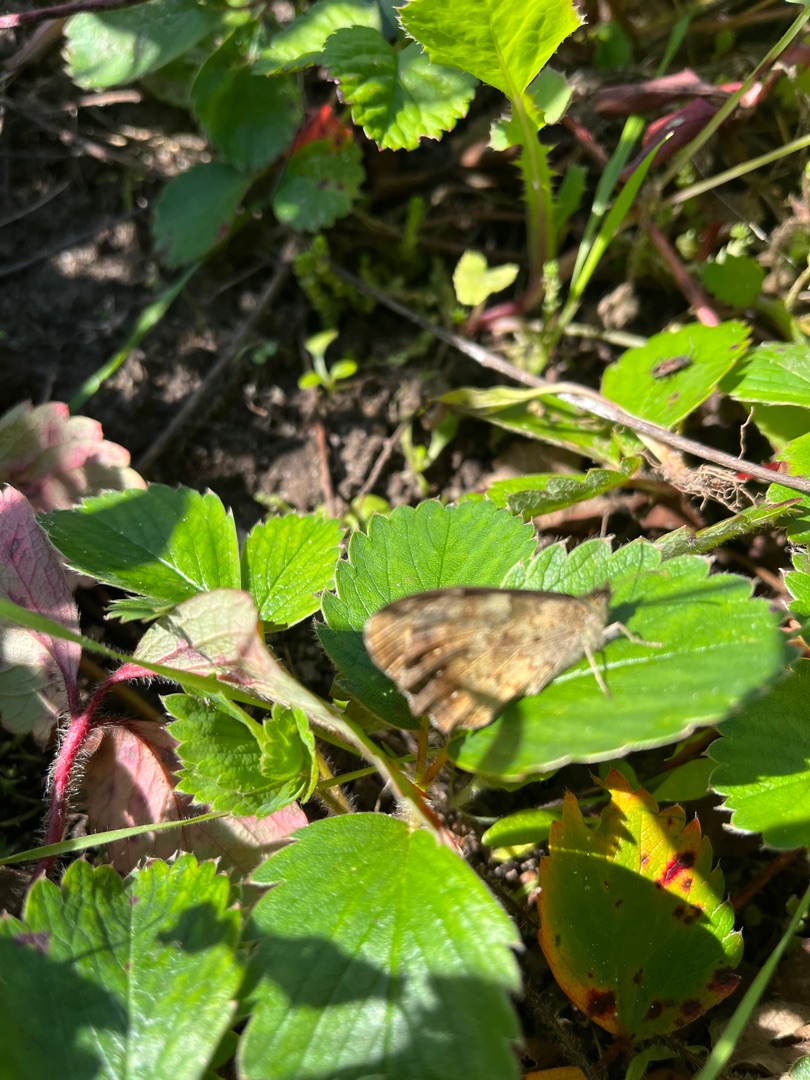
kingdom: Animalia
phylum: Arthropoda
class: Insecta
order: Lepidoptera
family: Nymphalidae
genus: Pararge
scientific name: Pararge aegeria
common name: Skovrandøje
